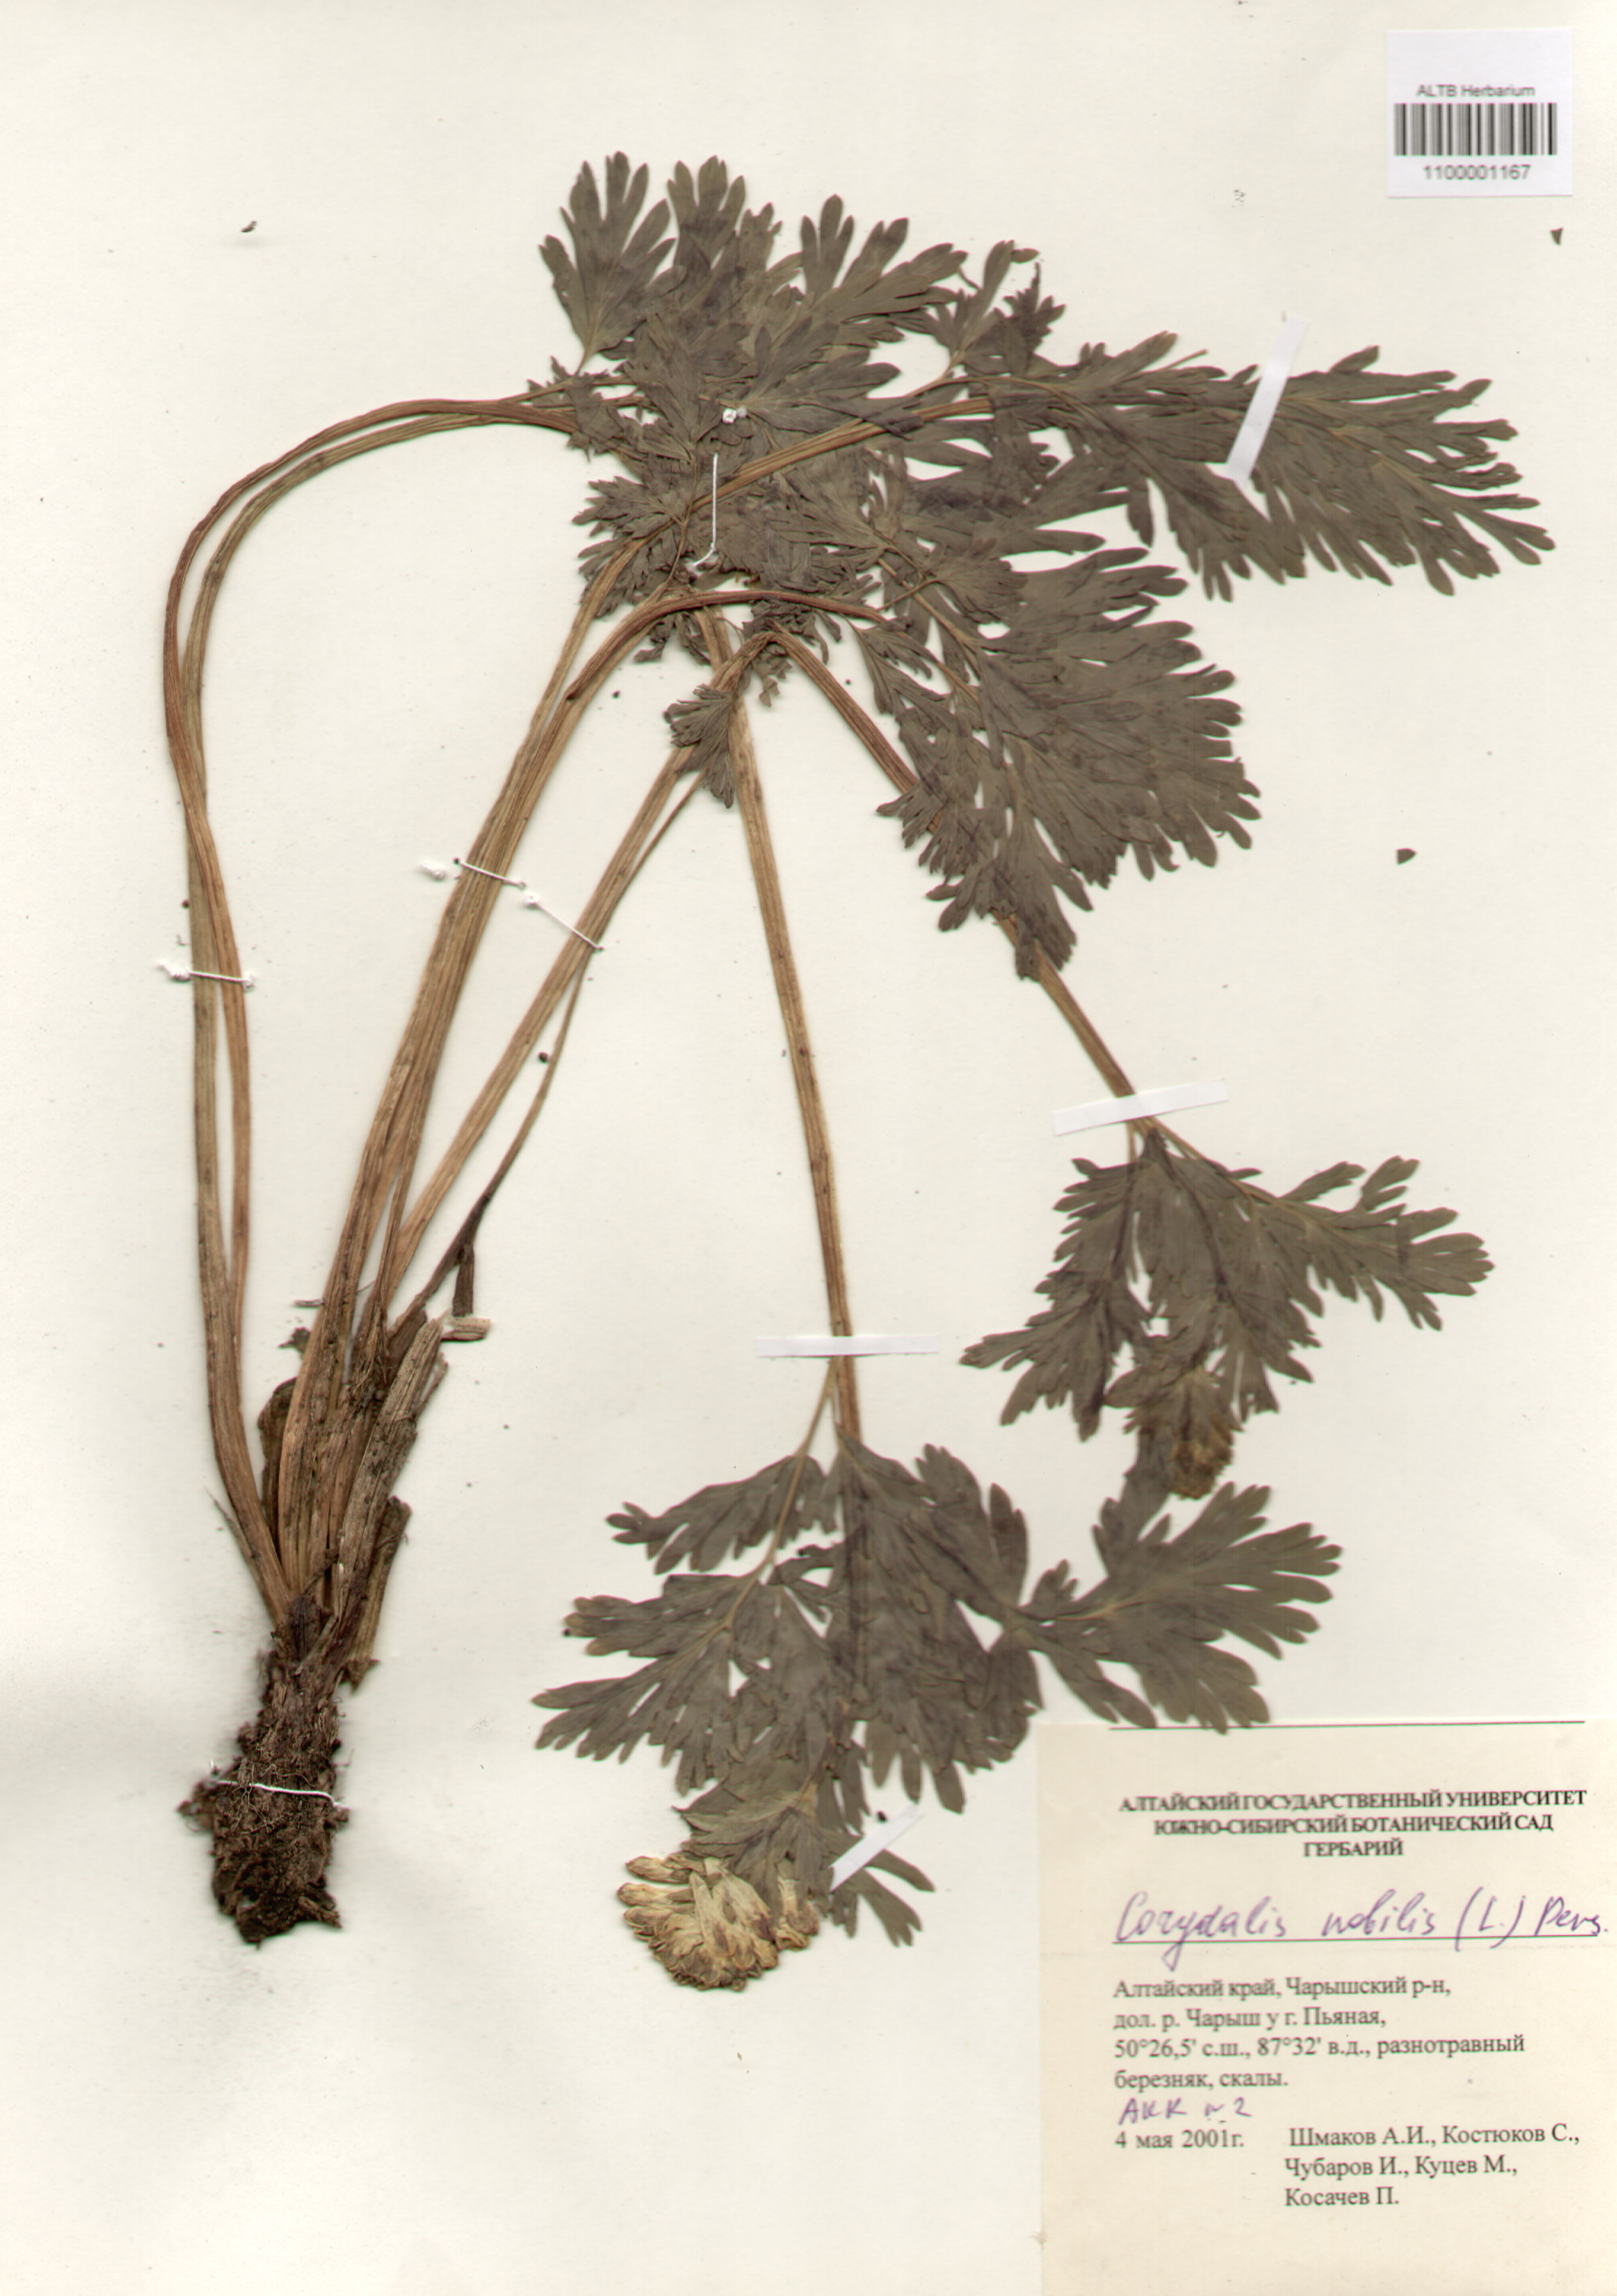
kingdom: Plantae
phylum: Tracheophyta
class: Magnoliopsida
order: Ranunculales
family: Papaveraceae
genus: Corydalis
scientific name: Corydalis nobilis
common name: Siberian corydalis
